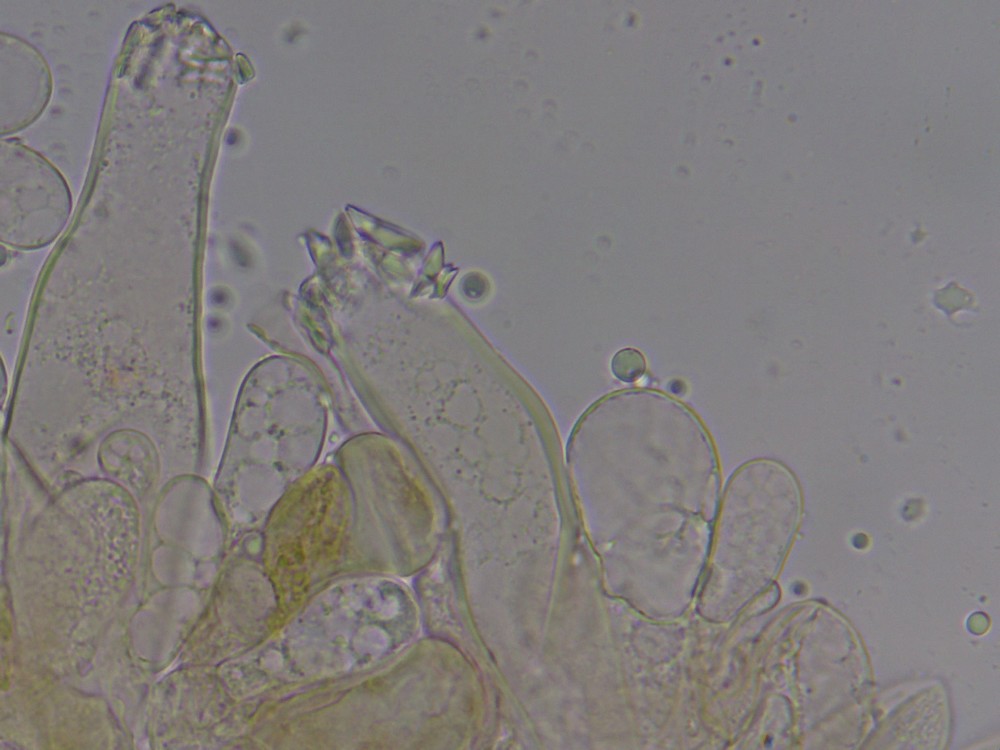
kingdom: Fungi
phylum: Basidiomycota
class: Agaricomycetes
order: Agaricales
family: Inocybaceae
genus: Inocybe
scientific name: Inocybe
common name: trævlhat
